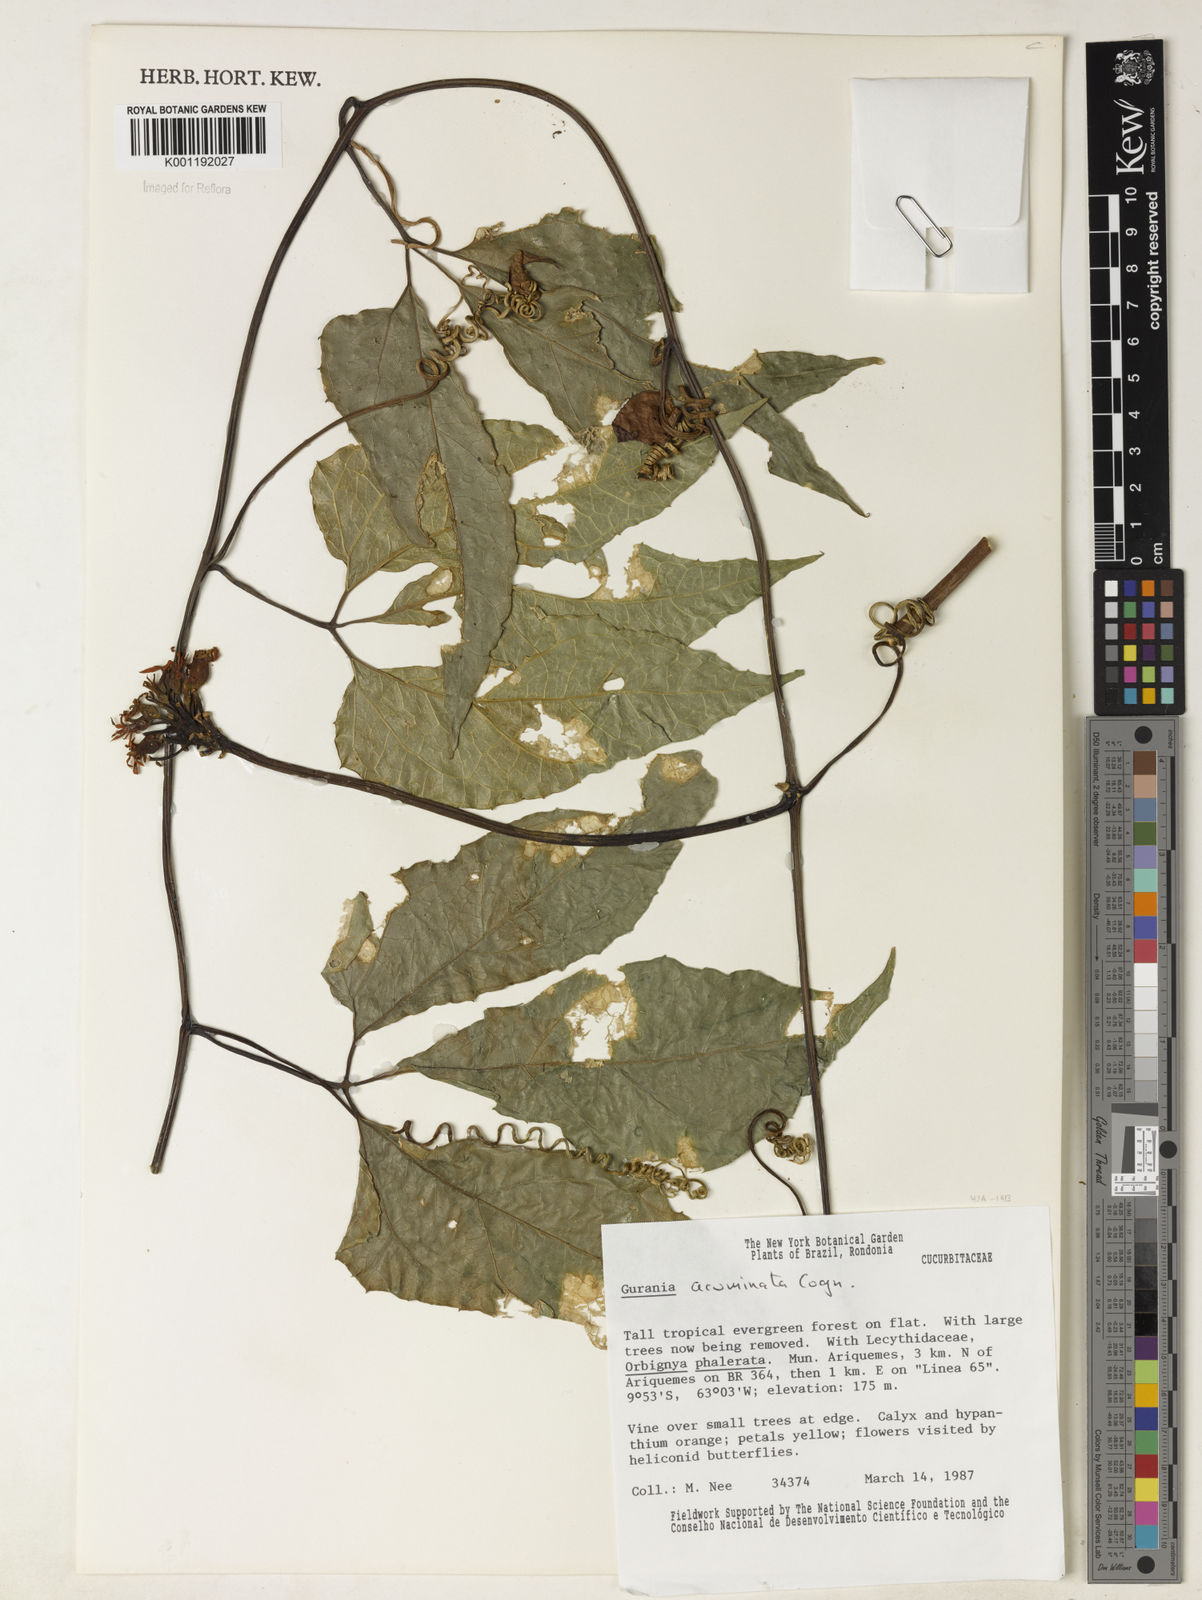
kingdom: Plantae
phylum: Tracheophyta
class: Magnoliopsida
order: Cucurbitales
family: Cucurbitaceae
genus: Gurania
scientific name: Gurania acuminata
